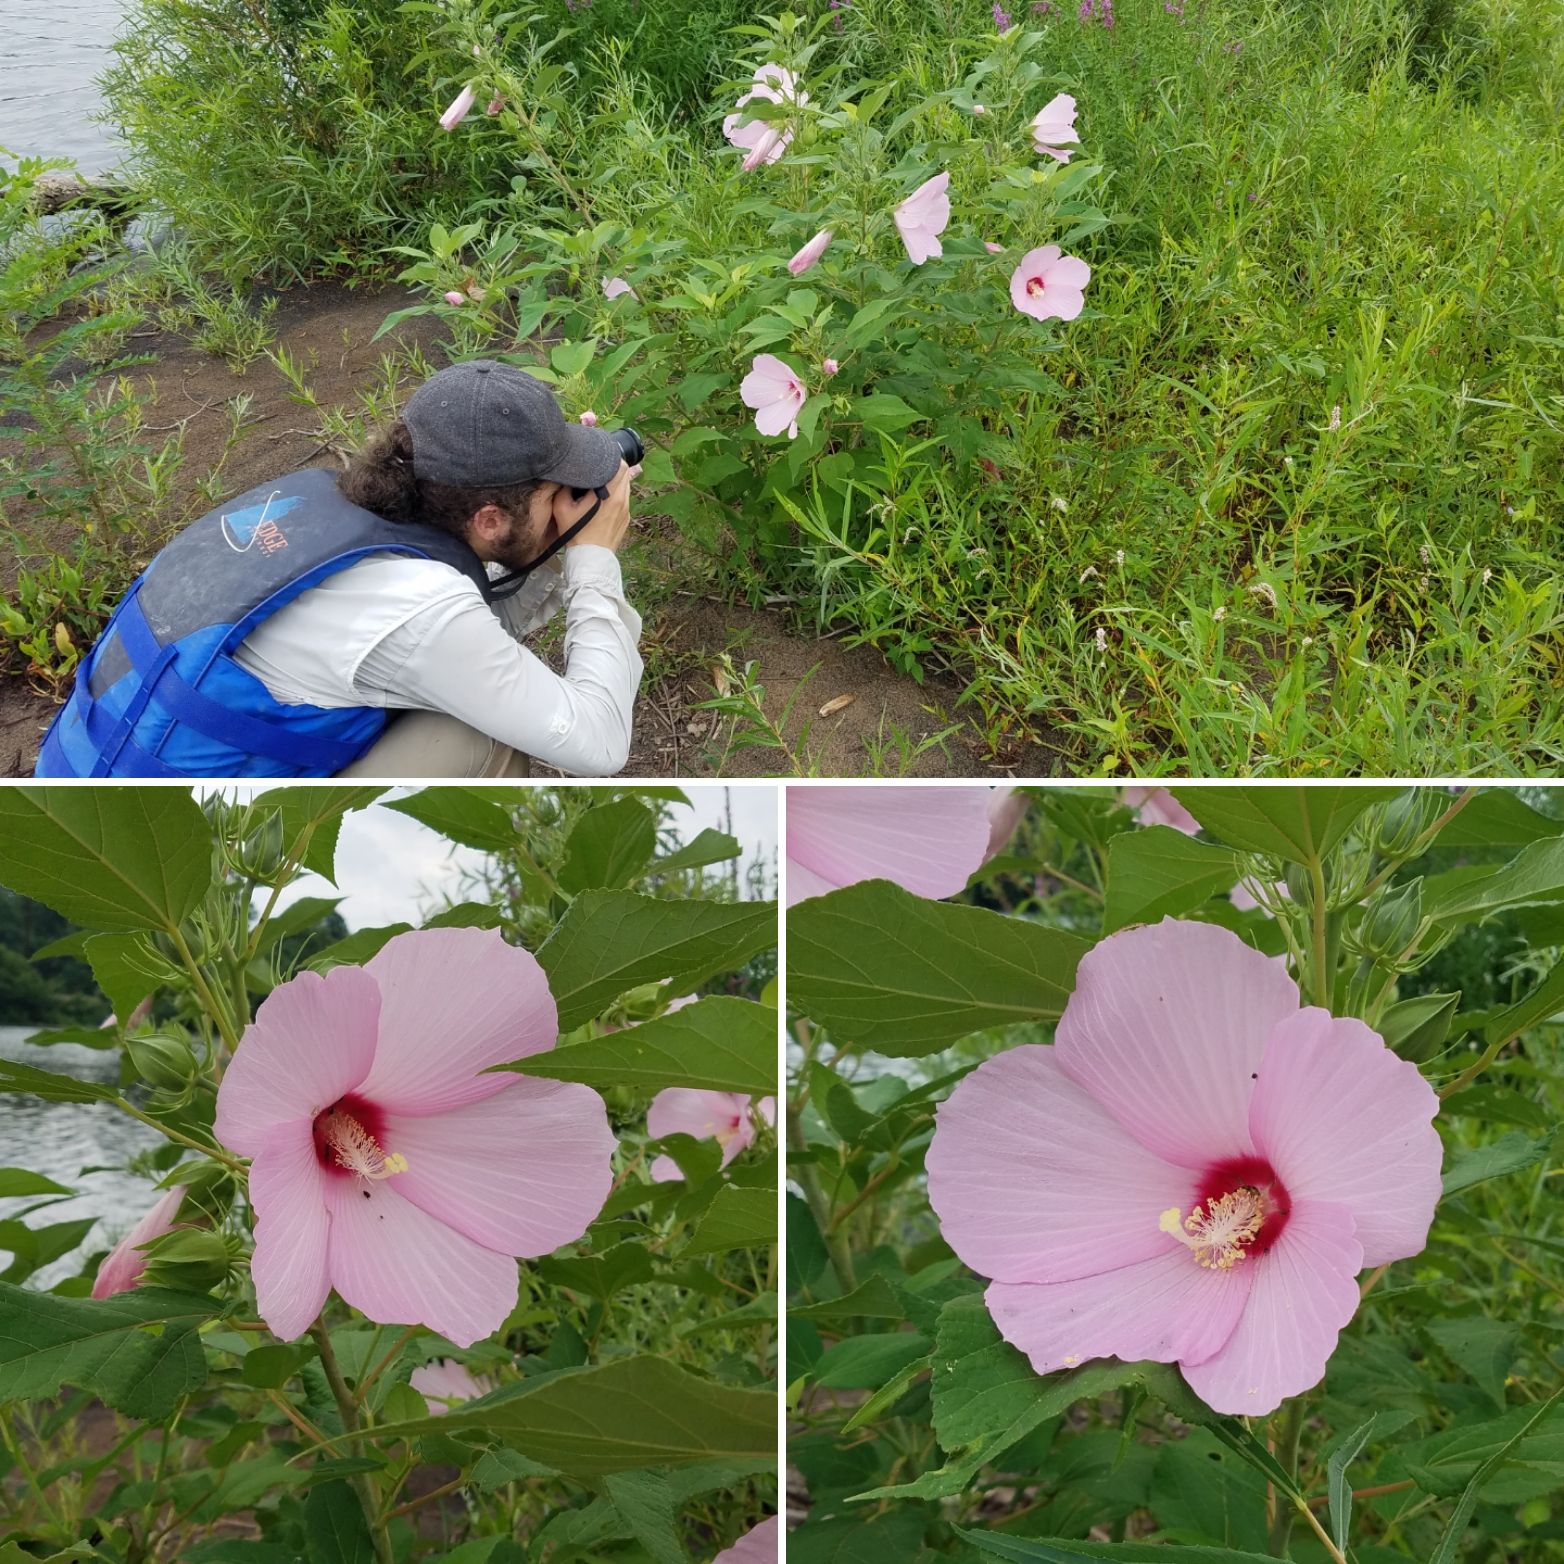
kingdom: Plantae
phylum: Tracheophyta
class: Magnoliopsida
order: Malvales
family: Malvaceae
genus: Hibiscus
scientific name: Hibiscus moscheutos
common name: Common rose-mallow
